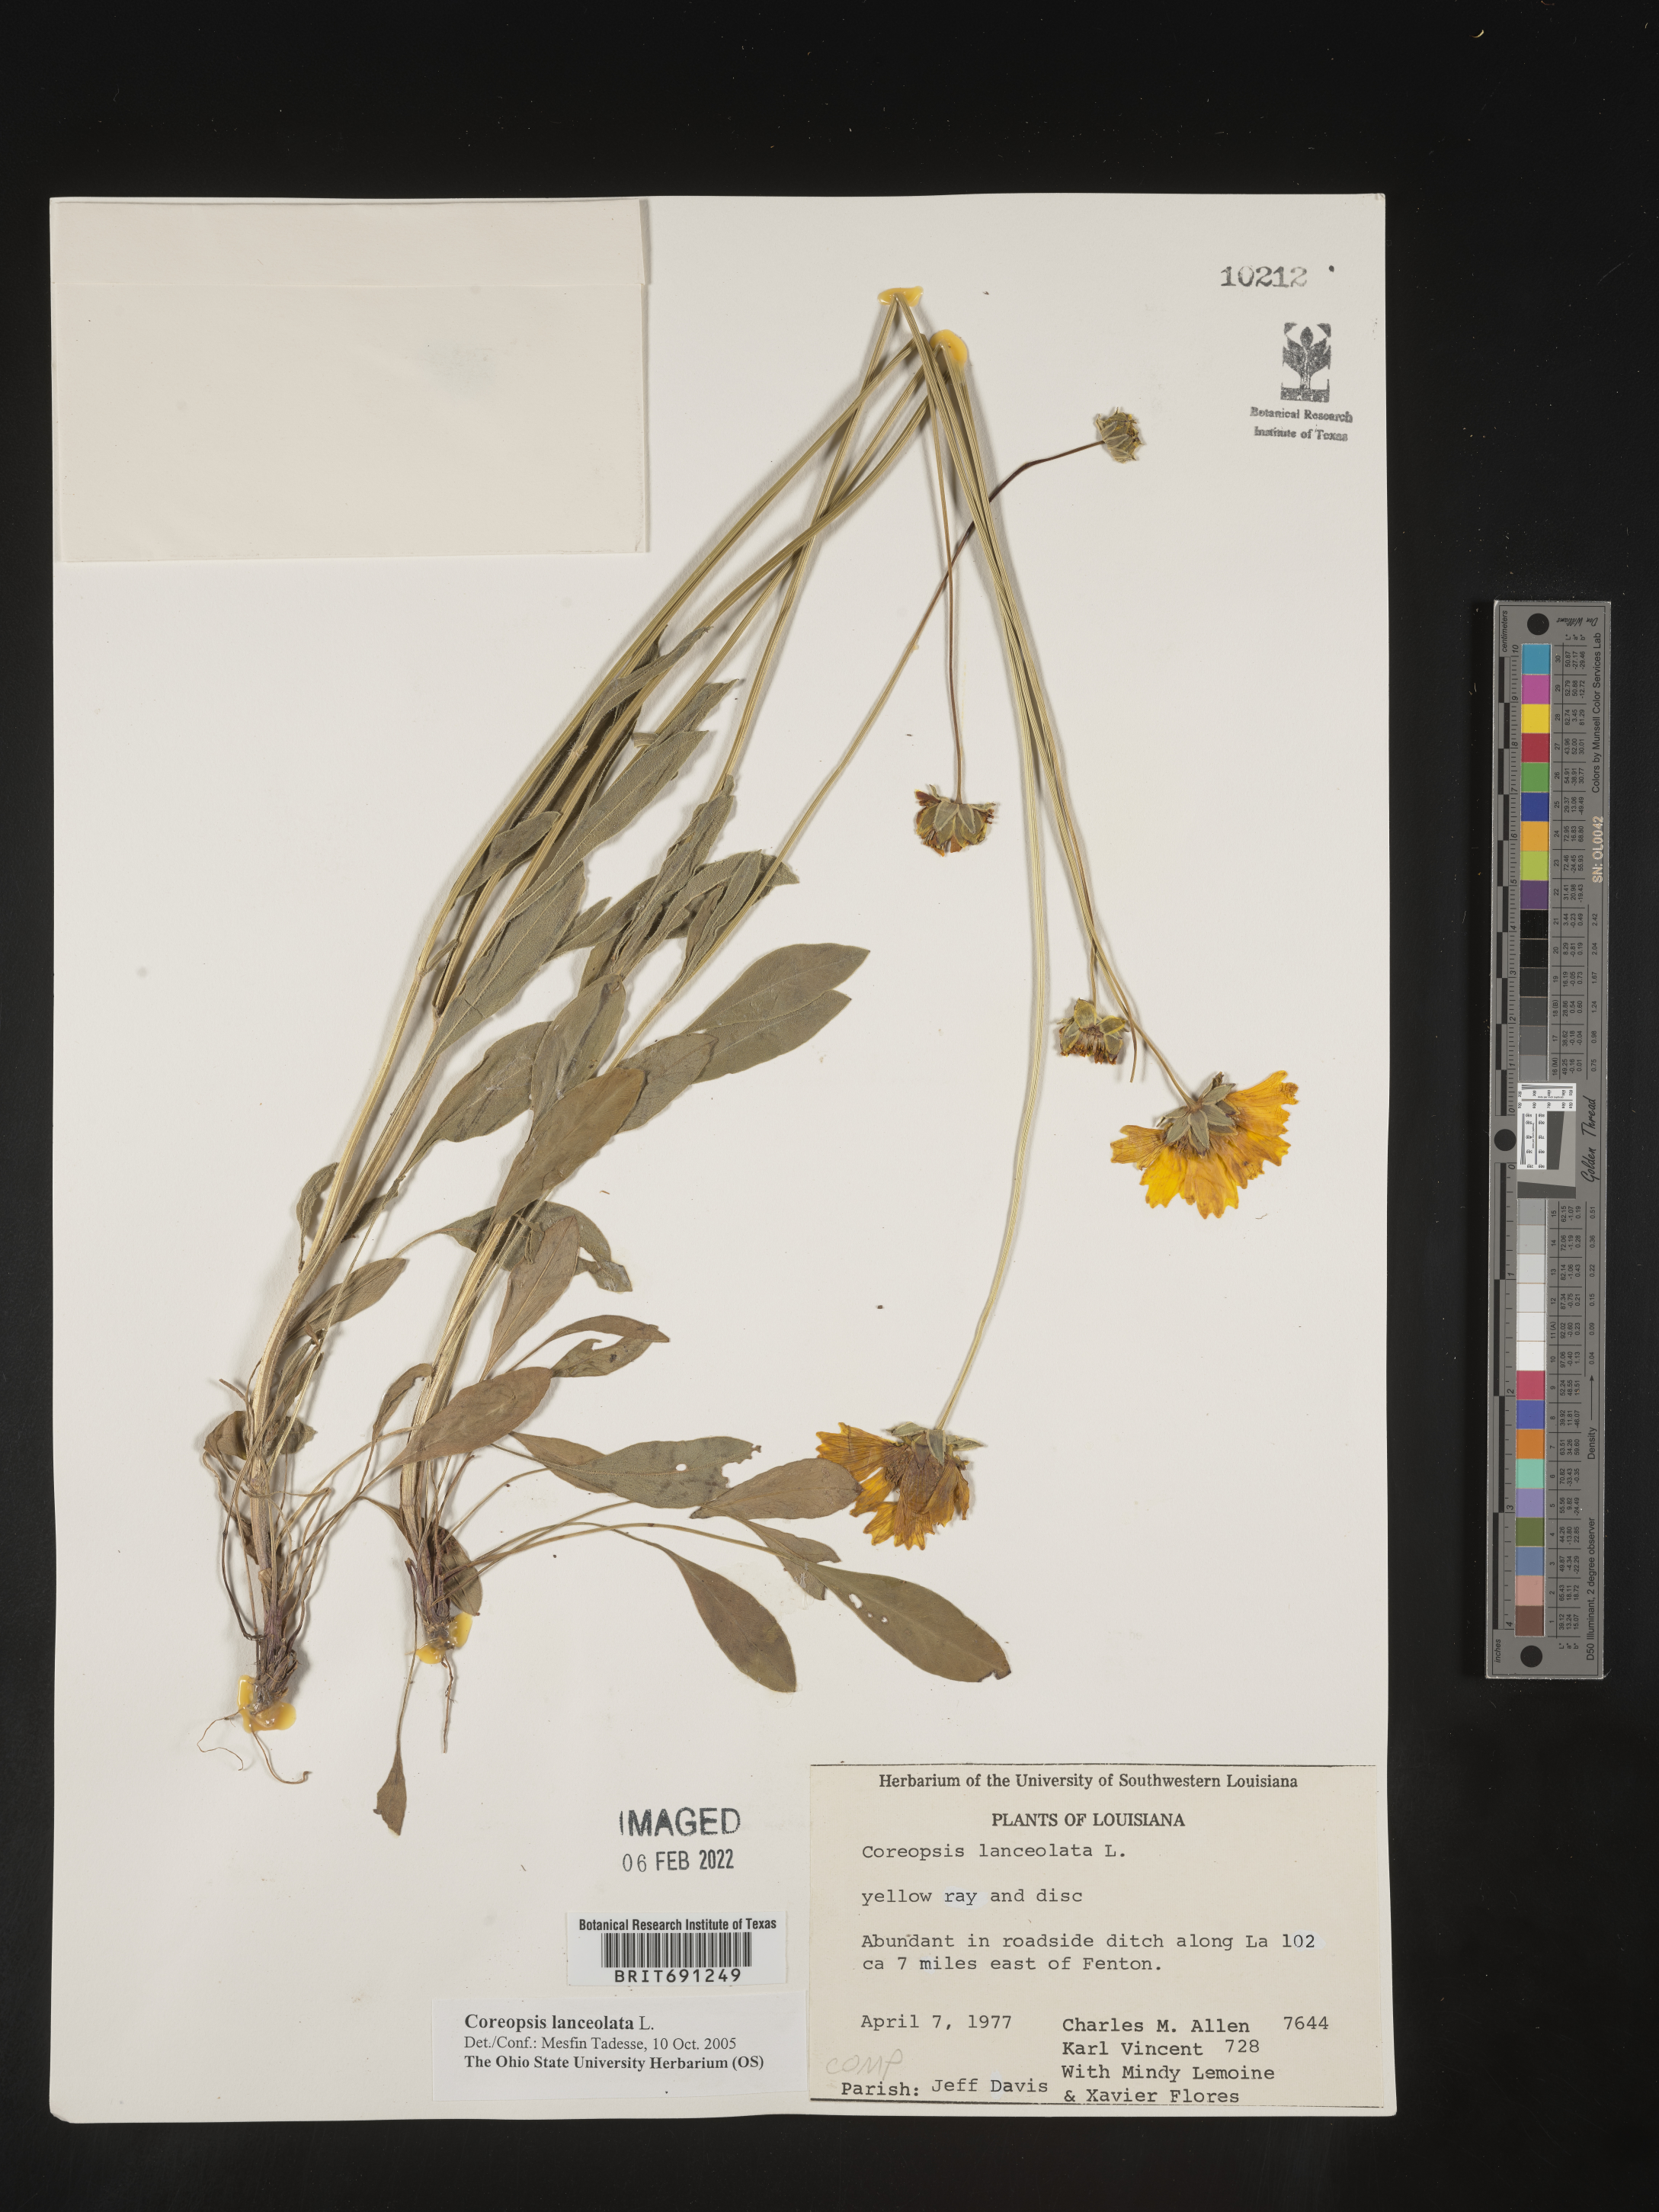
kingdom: Plantae
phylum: Tracheophyta
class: Magnoliopsida
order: Asterales
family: Asteraceae
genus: Coreopsis
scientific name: Coreopsis lanceolata
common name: Garden coreopsis
